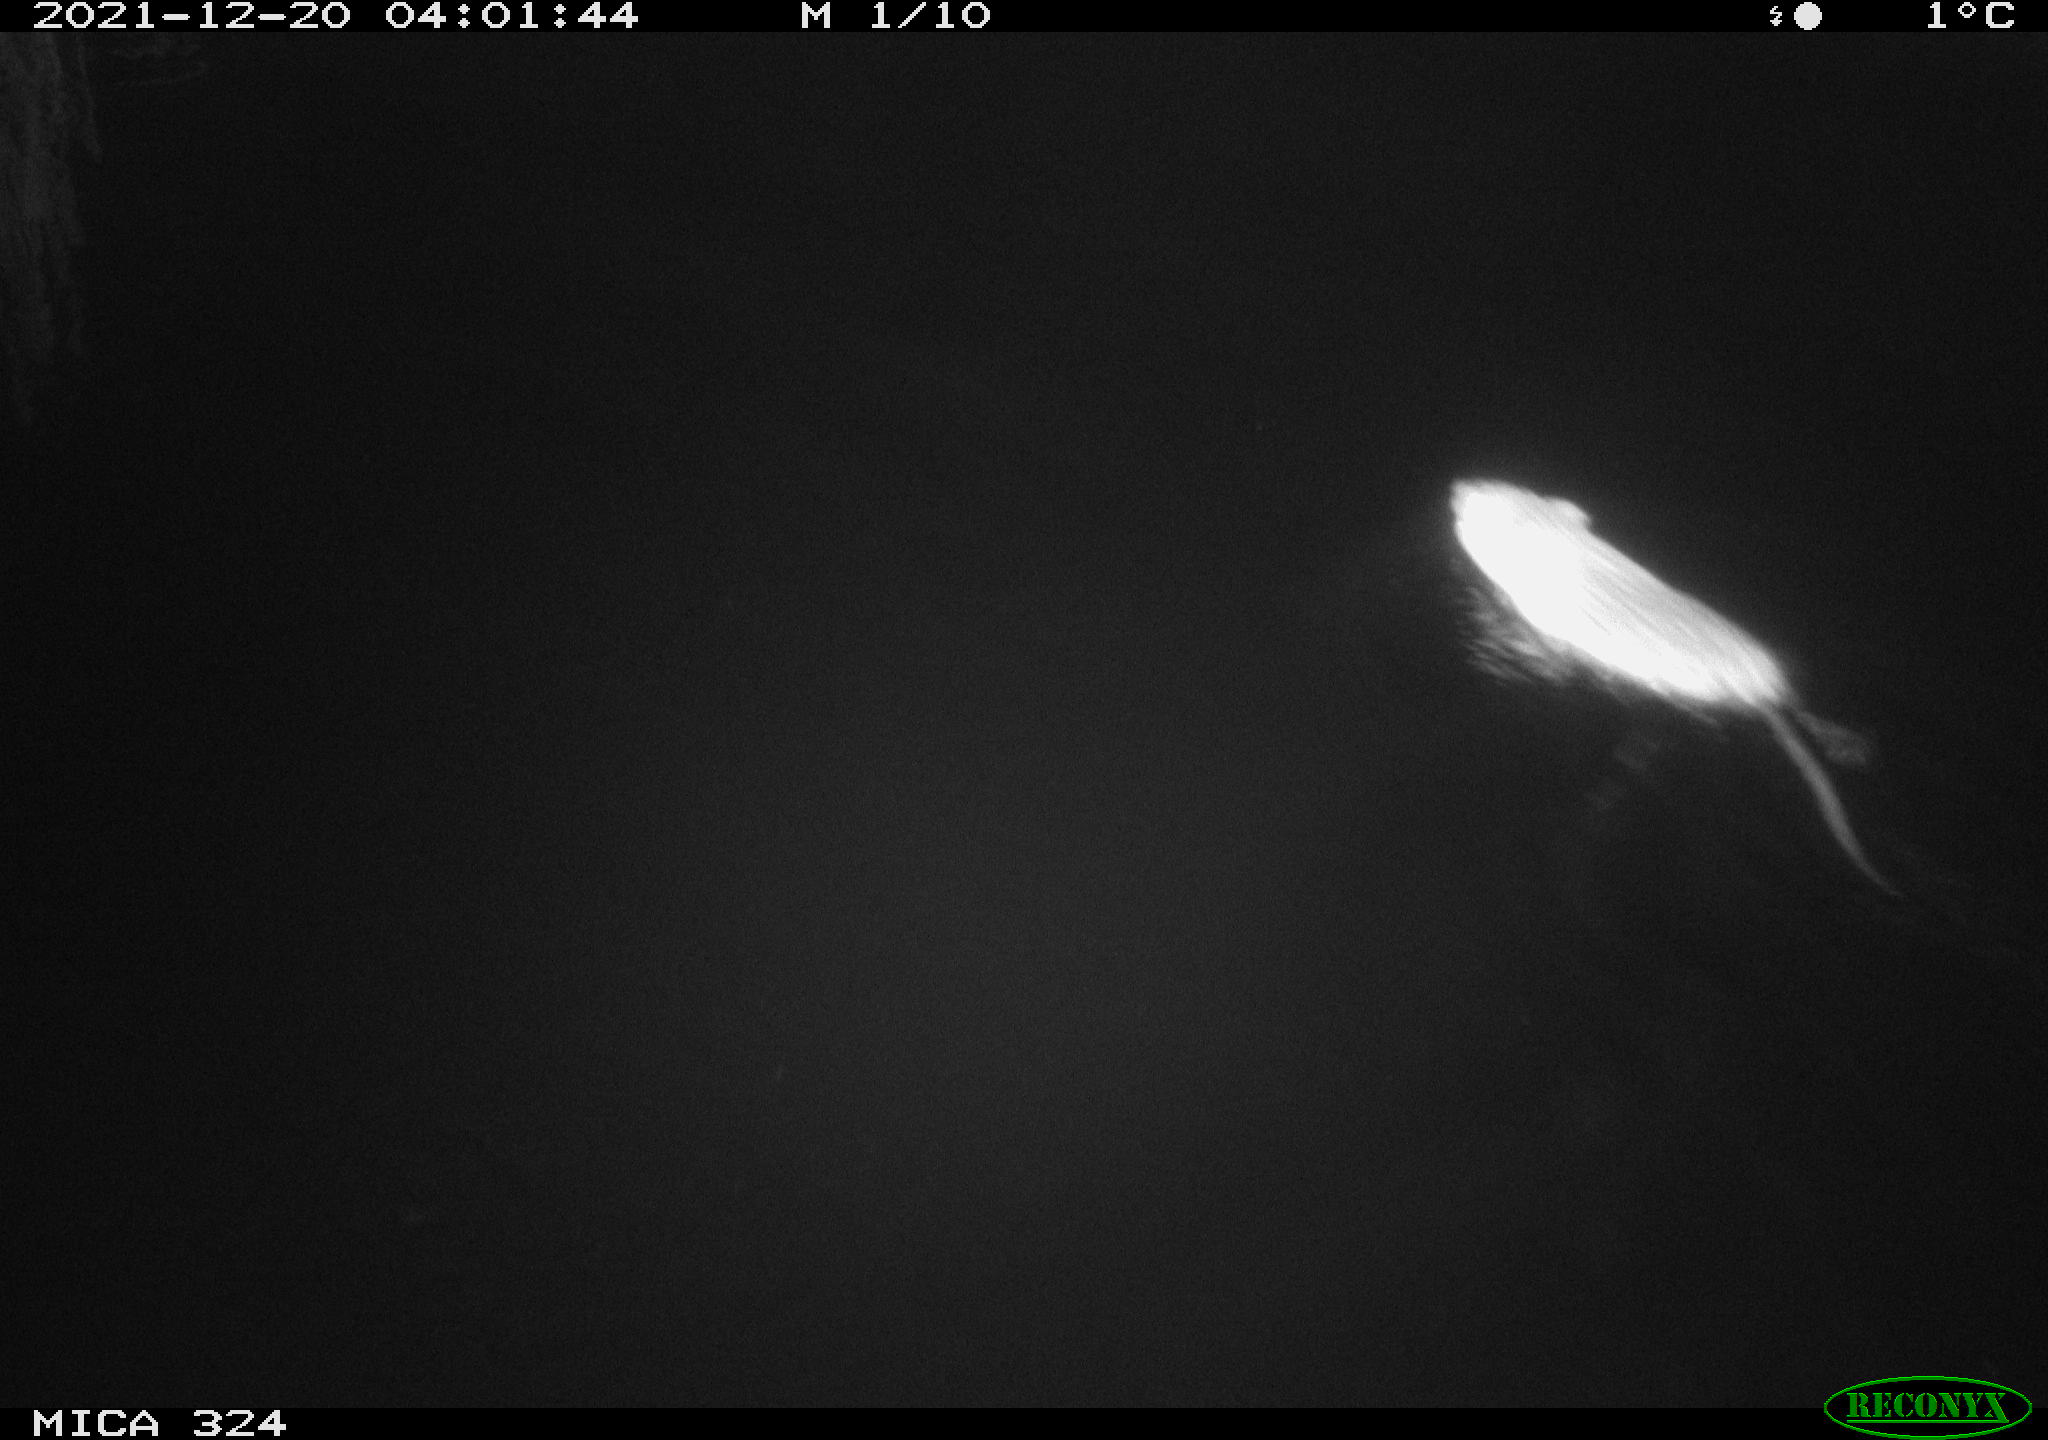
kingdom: Animalia
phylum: Chordata
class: Mammalia
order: Rodentia
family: Cricetidae
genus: Ondatra
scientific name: Ondatra zibethicus
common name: Muskrat
